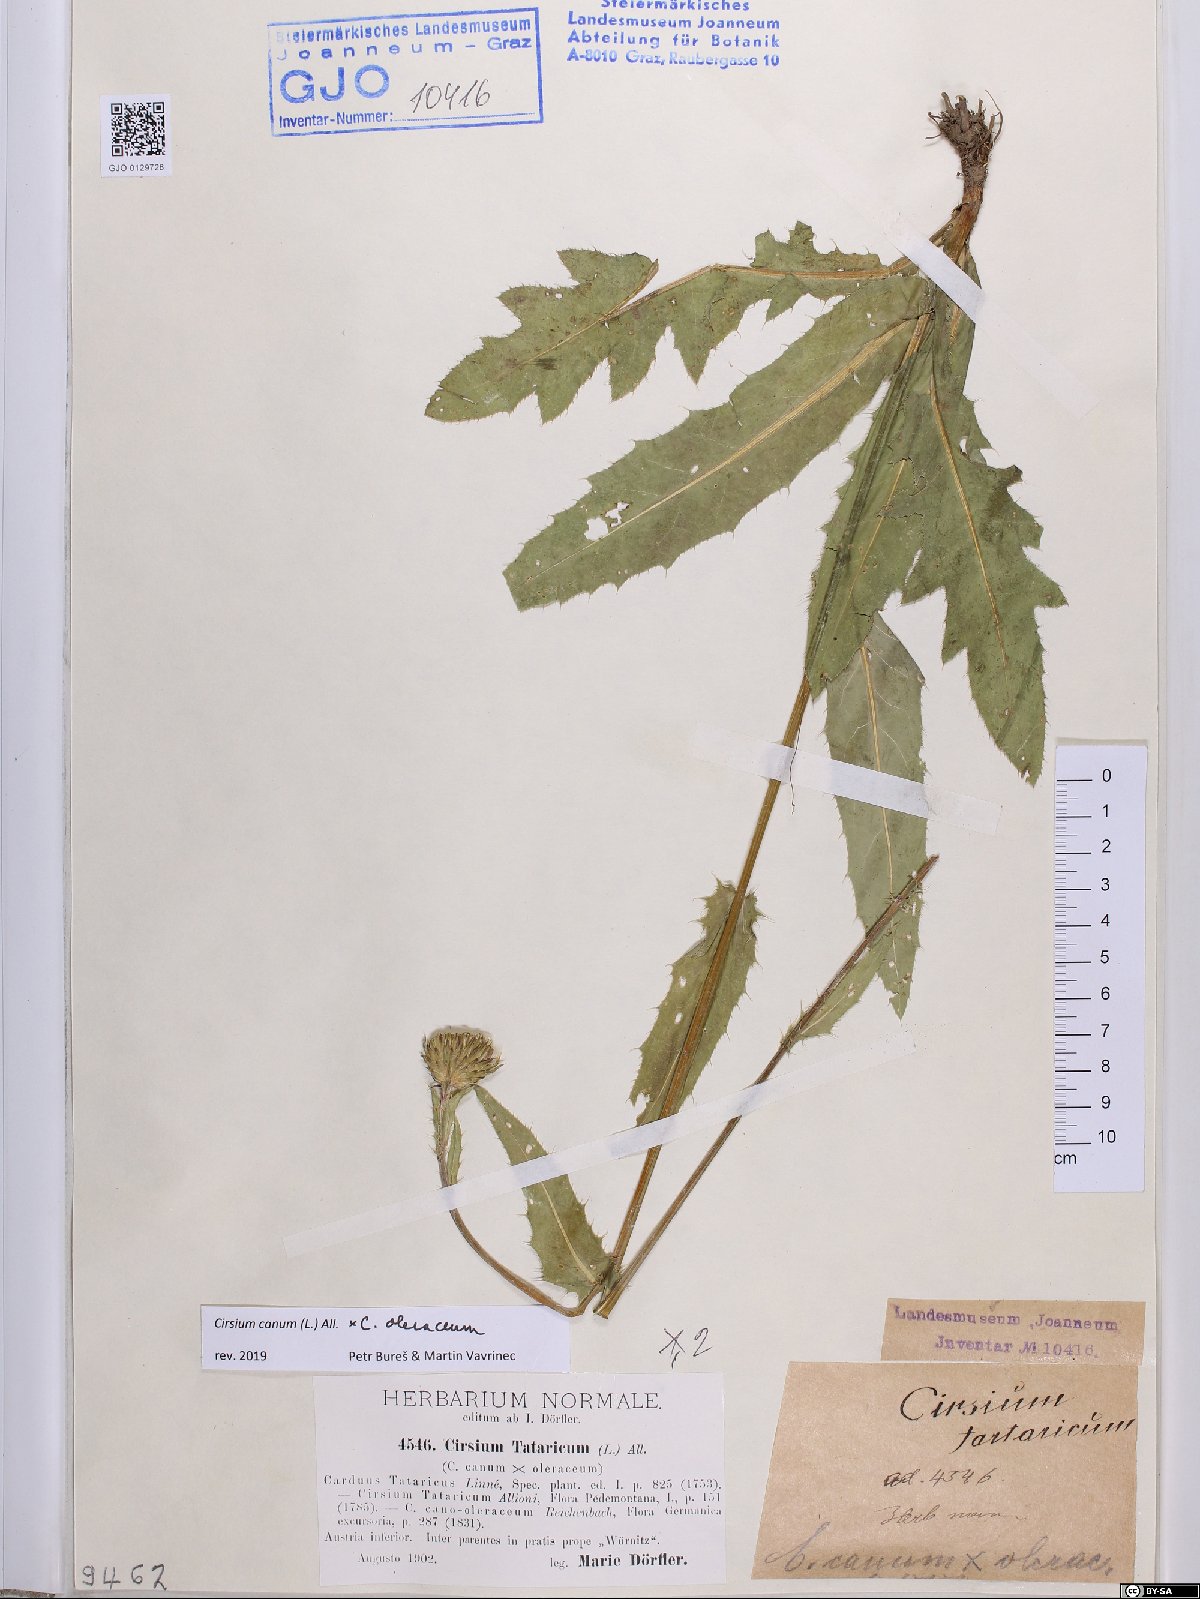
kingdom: Plantae
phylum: Tracheophyta
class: Magnoliopsida
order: Asterales
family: Asteraceae
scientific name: Asteraceae
